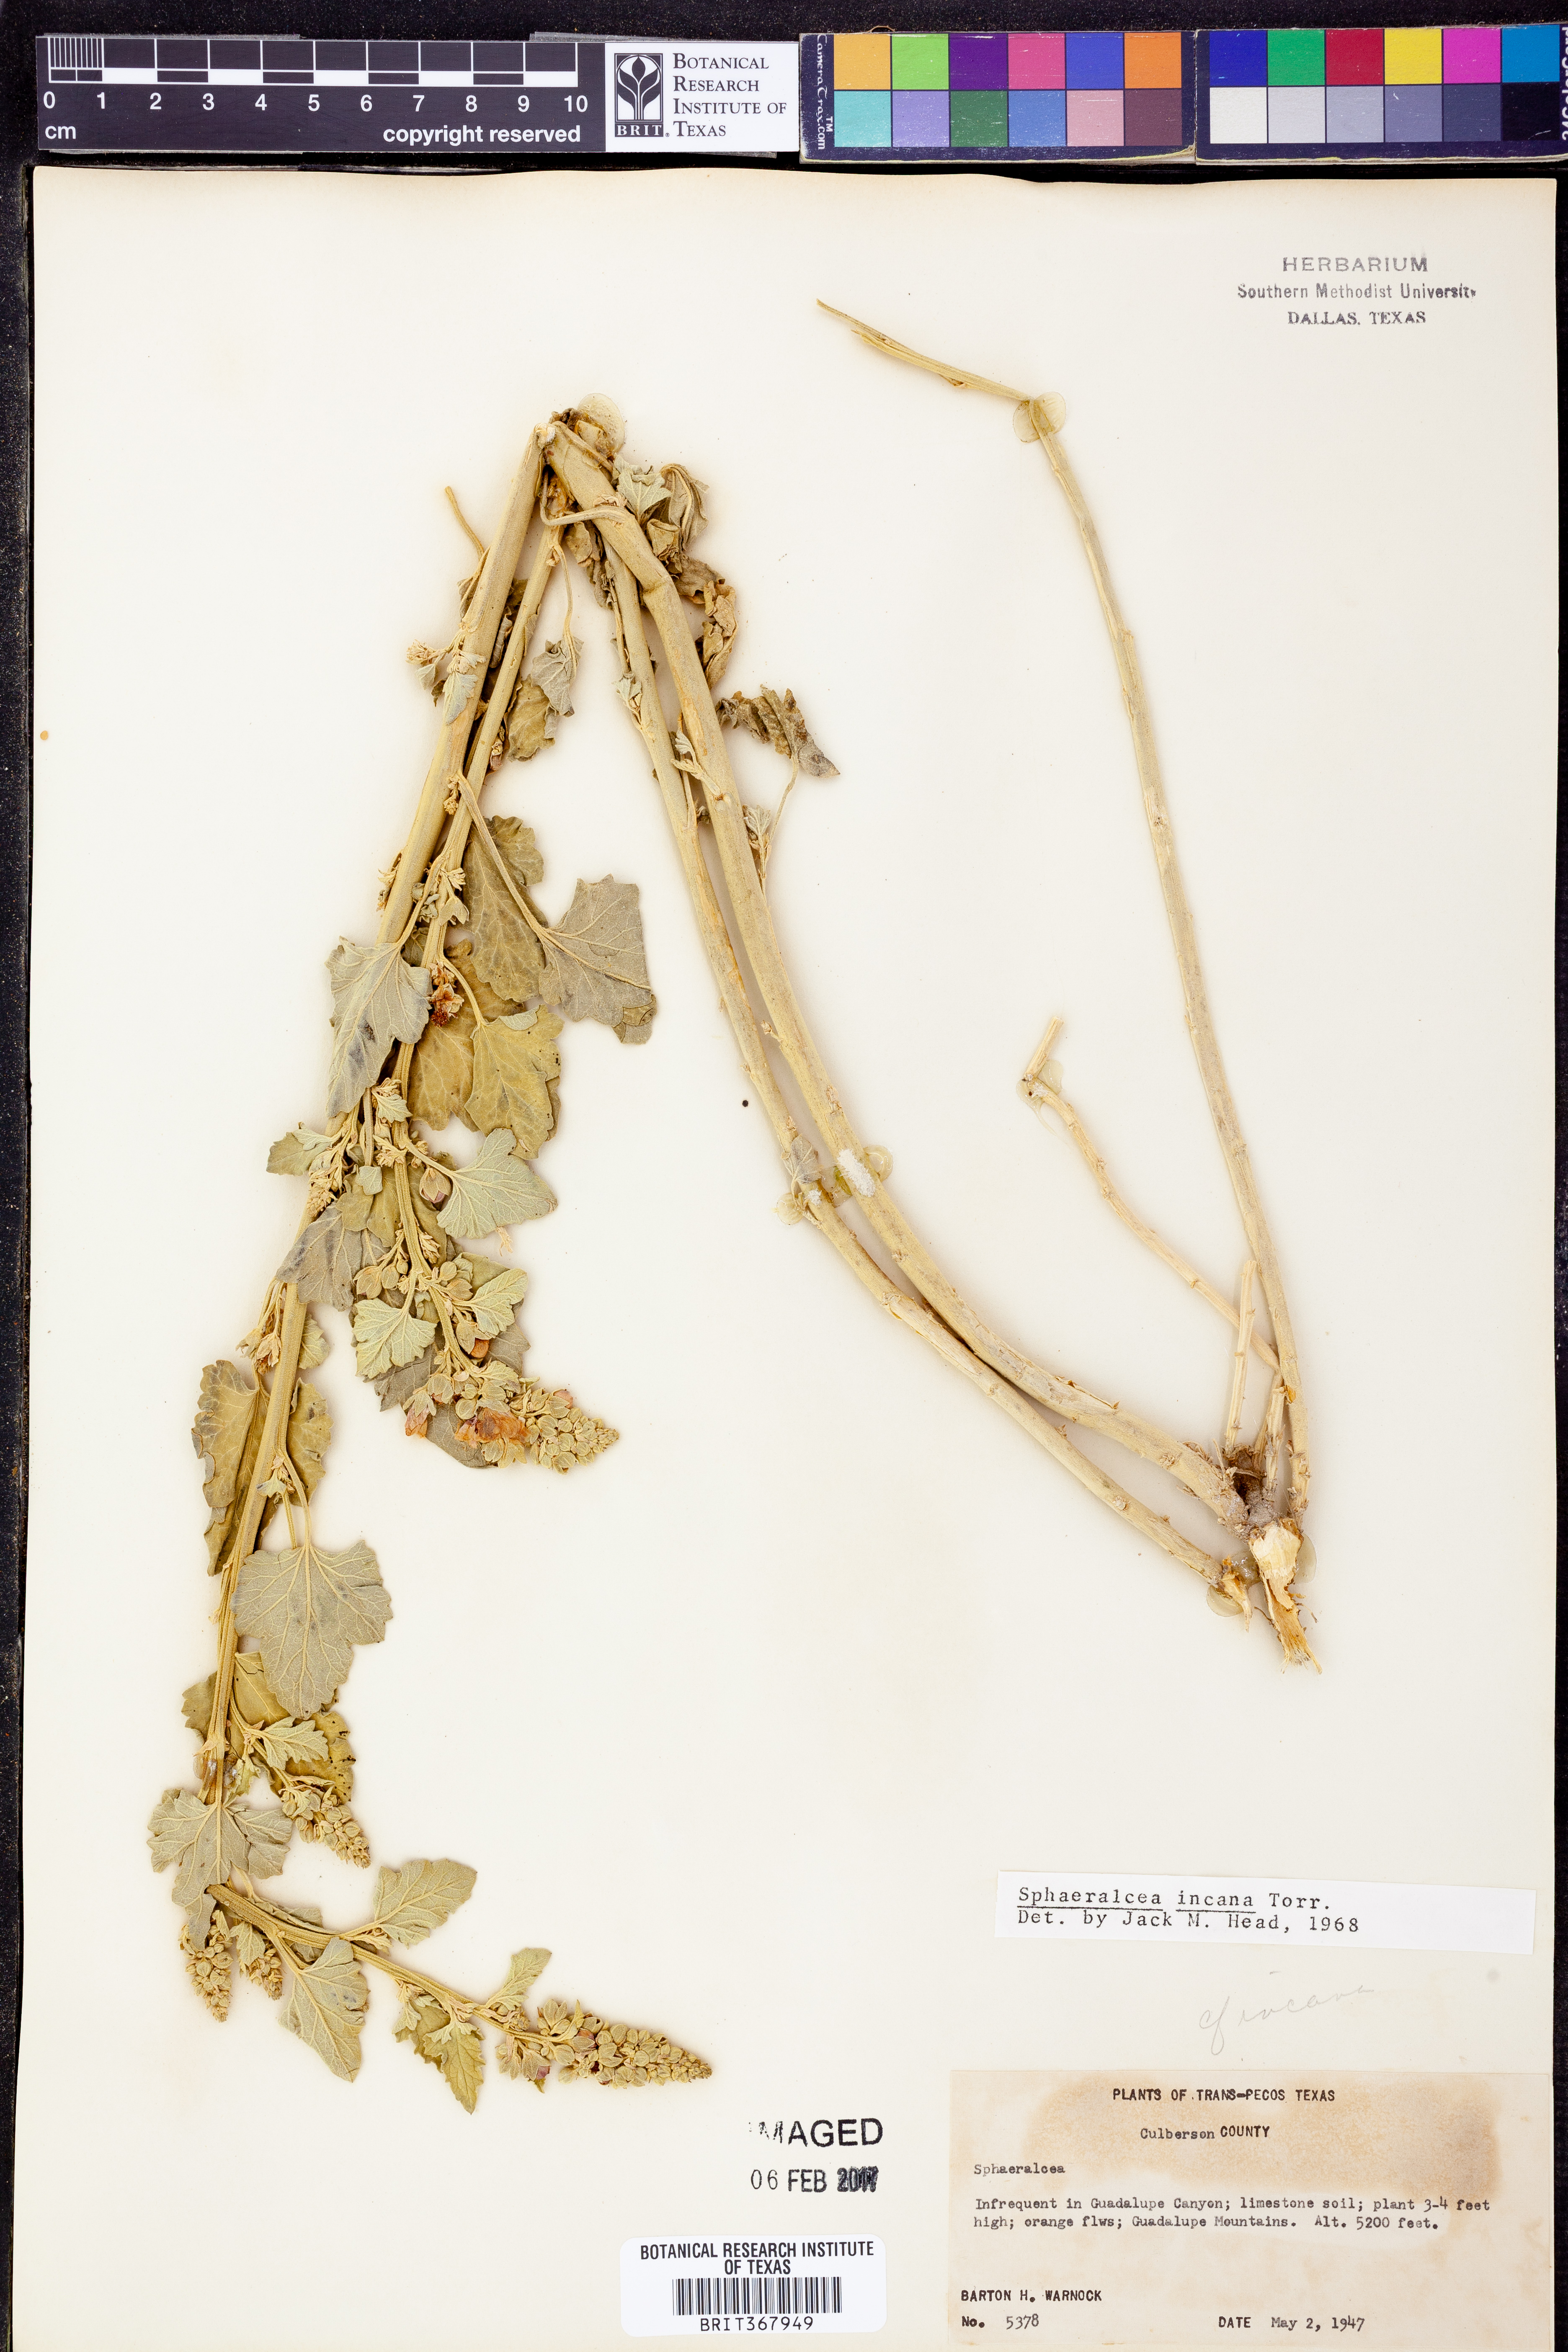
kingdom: Plantae
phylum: Tracheophyta
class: Magnoliopsida
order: Malvales
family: Malvaceae
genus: Sphaeralcea
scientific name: Sphaeralcea incana
